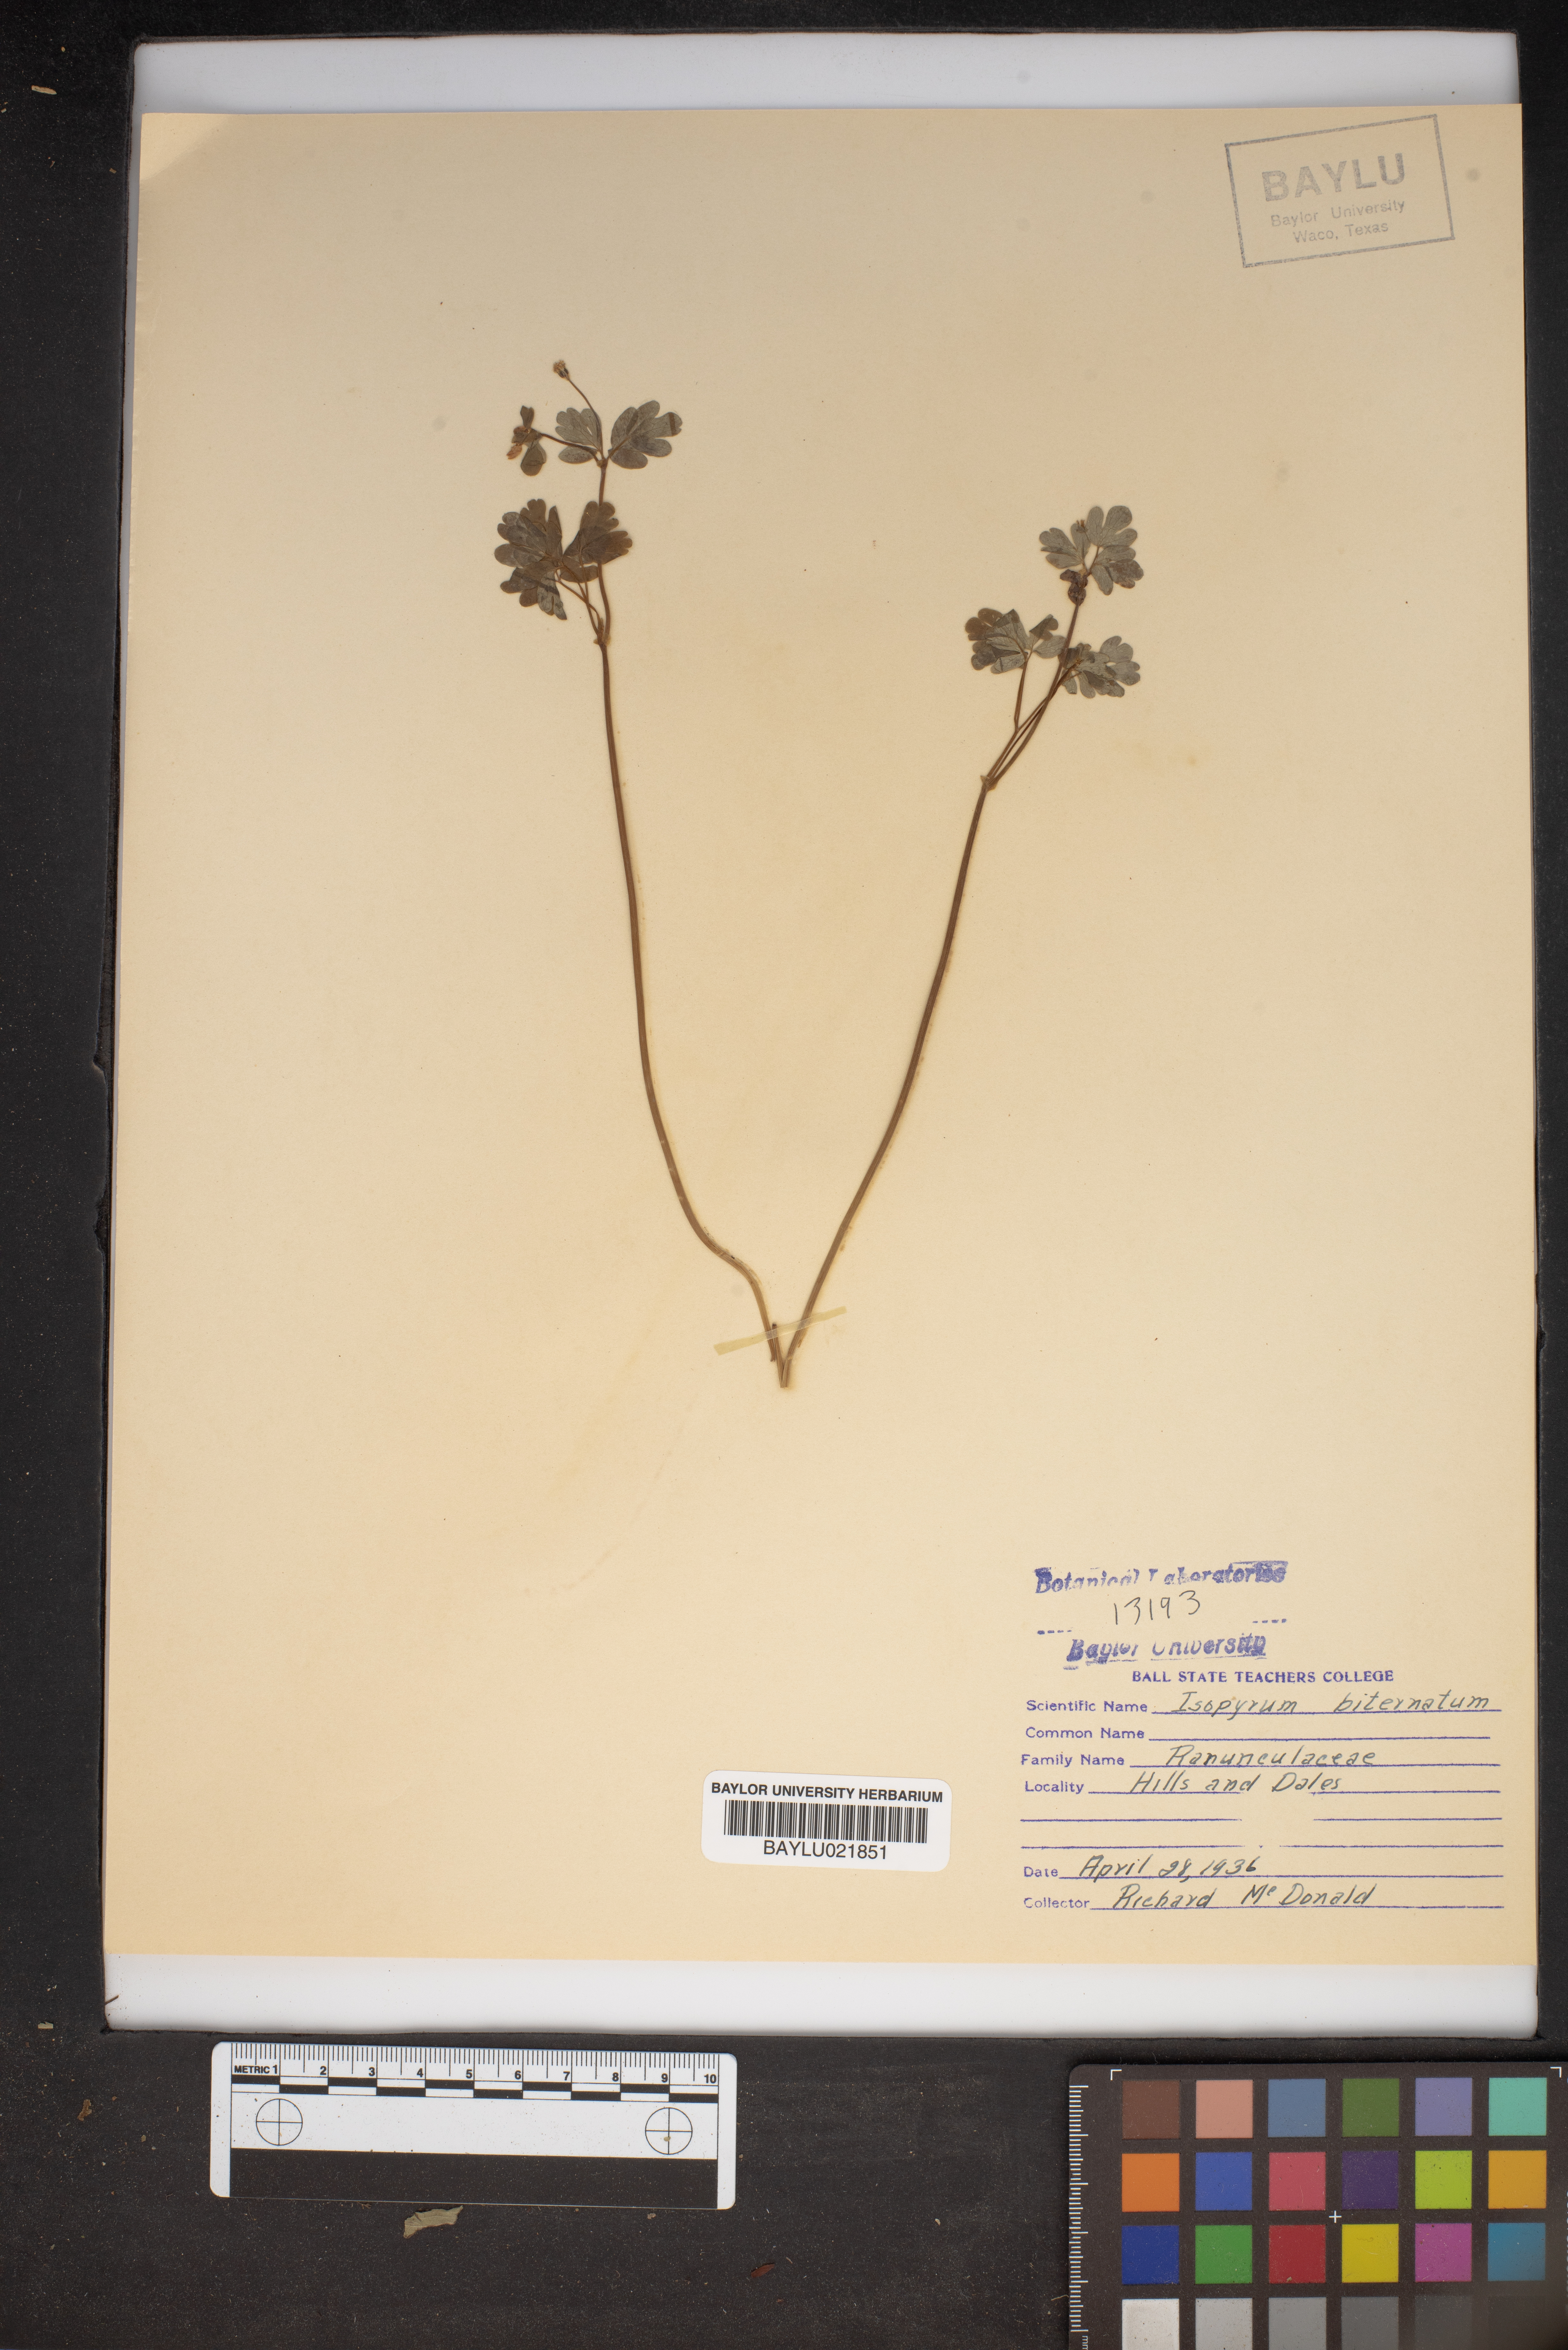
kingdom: Plantae
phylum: Tracheophyta
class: Magnoliopsida
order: Ranunculales
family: Ranunculaceae
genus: Enemion
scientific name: Enemion biternatum
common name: Eastern false rue-anemone
